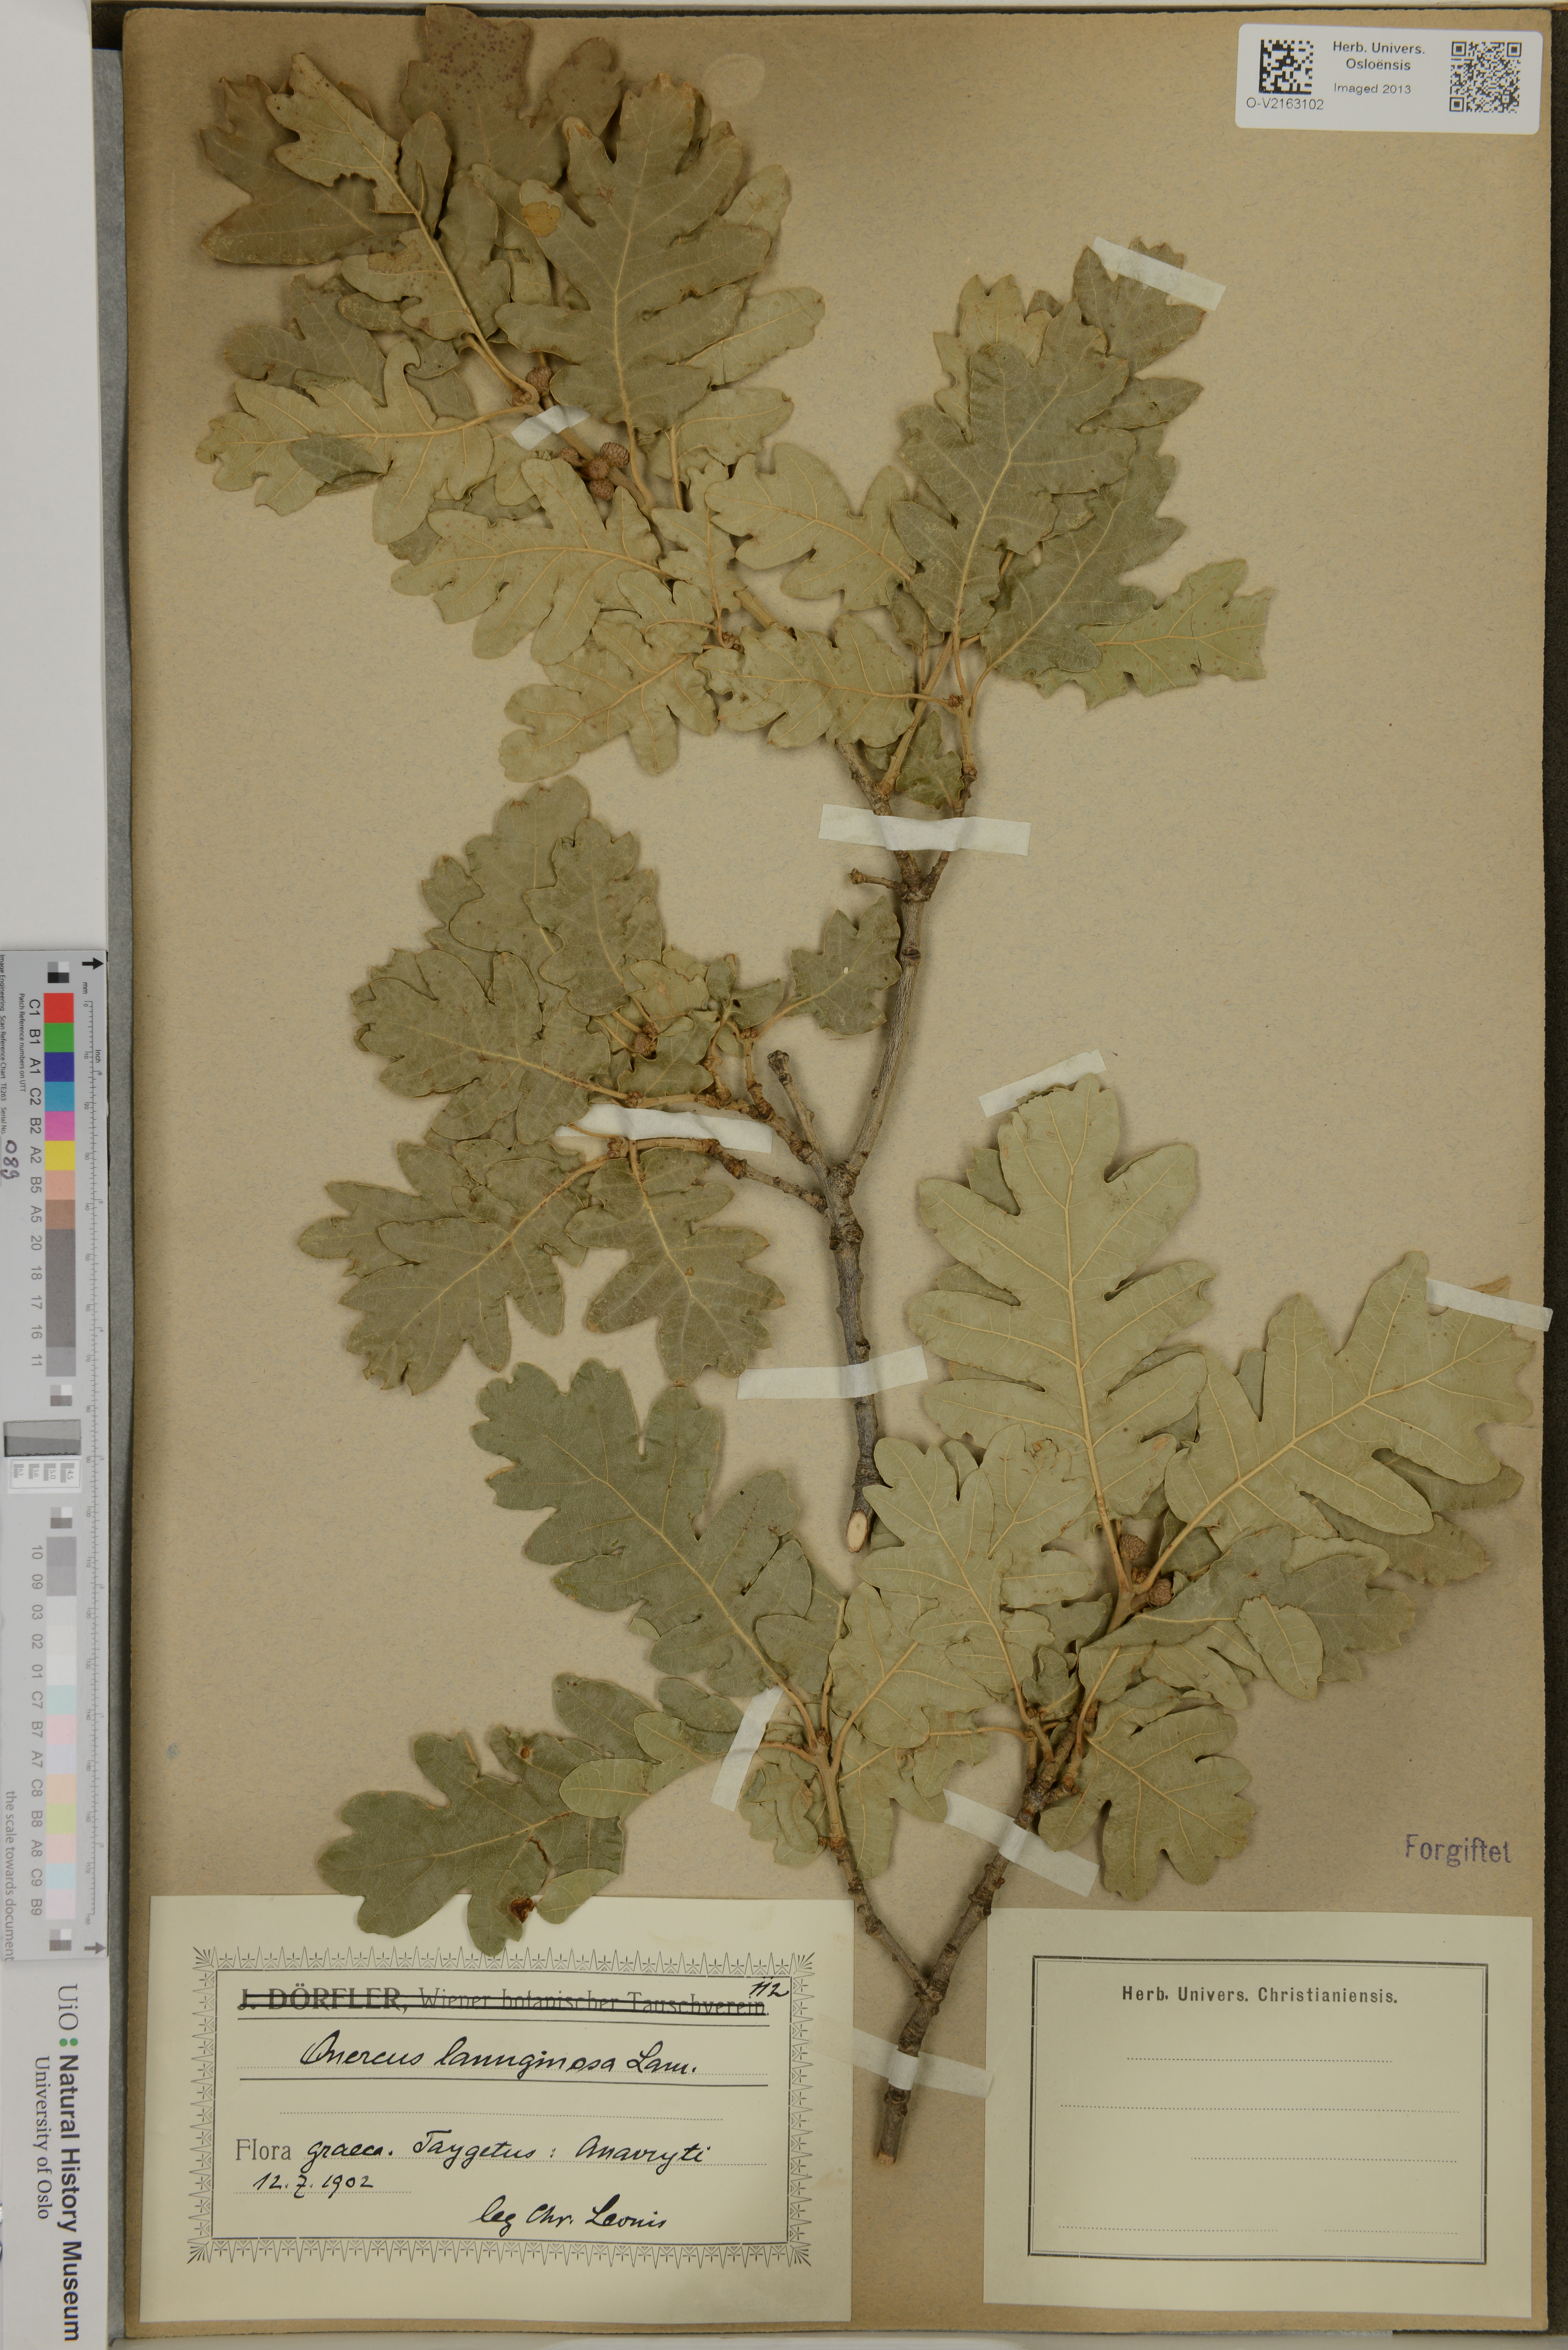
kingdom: Plantae
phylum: Tracheophyta
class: Magnoliopsida
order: Fagales
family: Fagaceae
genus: Quercus
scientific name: Quercus
